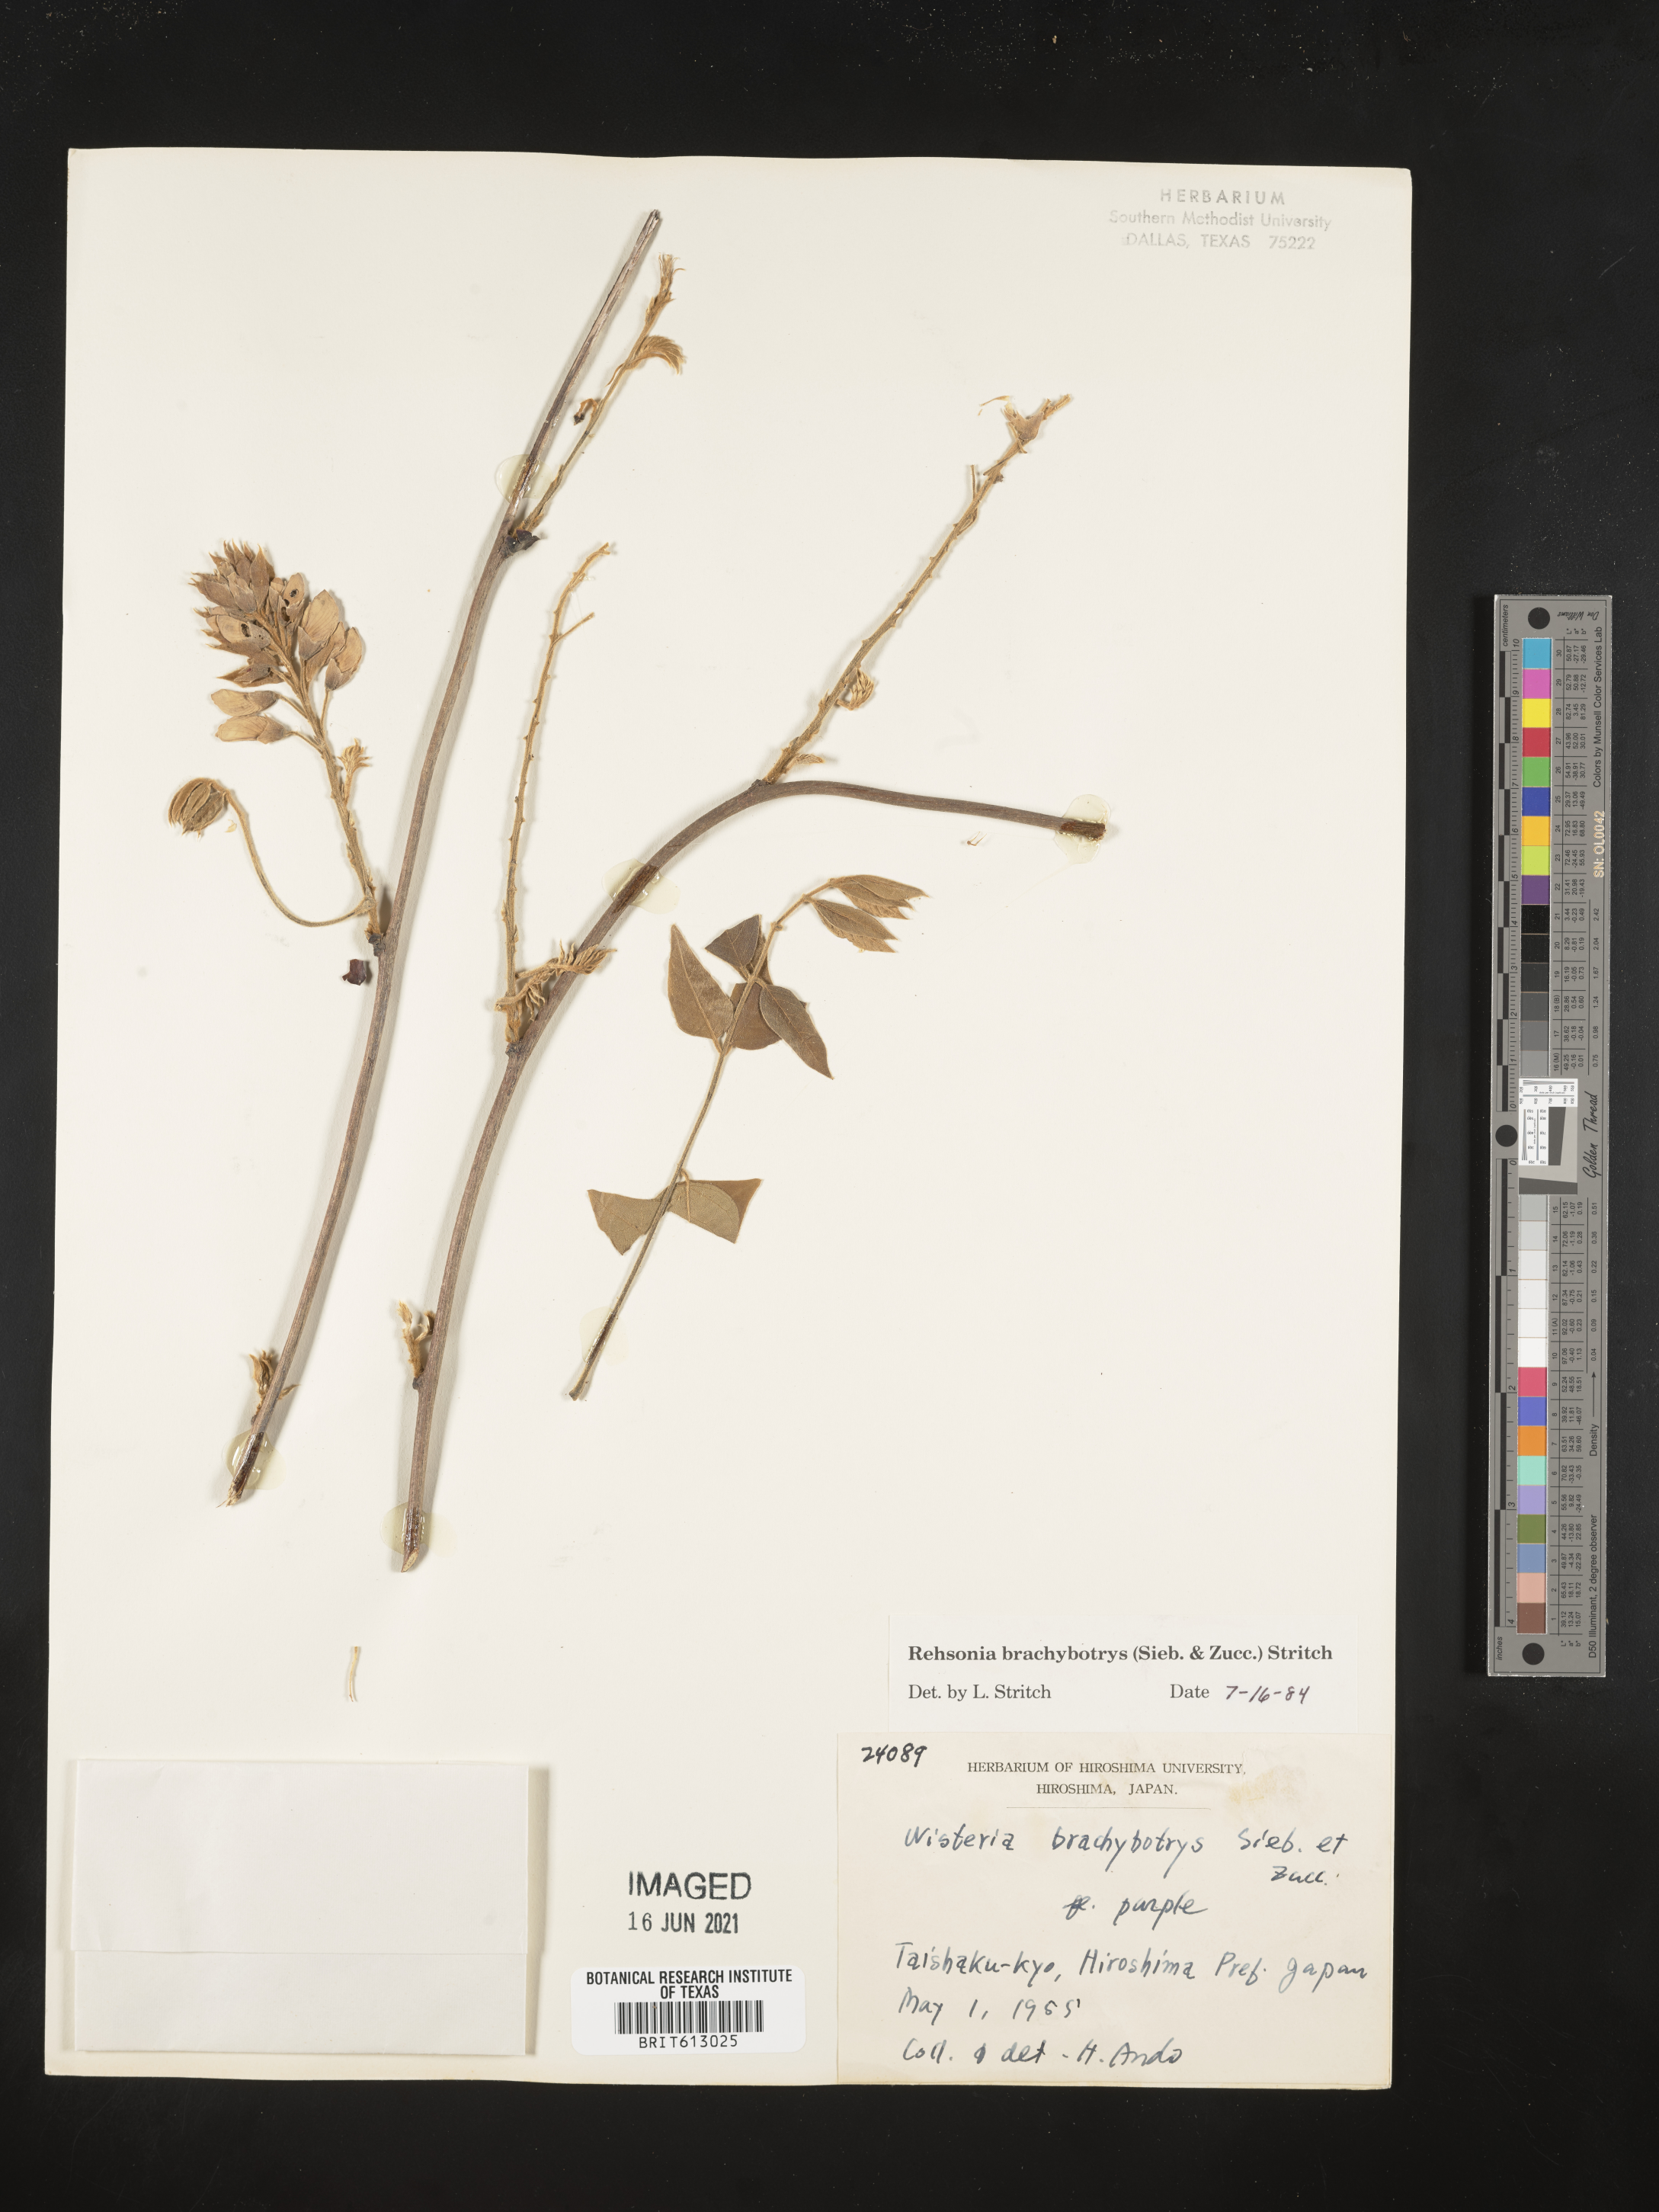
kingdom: Plantae
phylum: Tracheophyta
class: Magnoliopsida
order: Fabales
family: Fabaceae
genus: Wisteria
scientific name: Wisteria brachybotrys
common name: Silky wisteria
